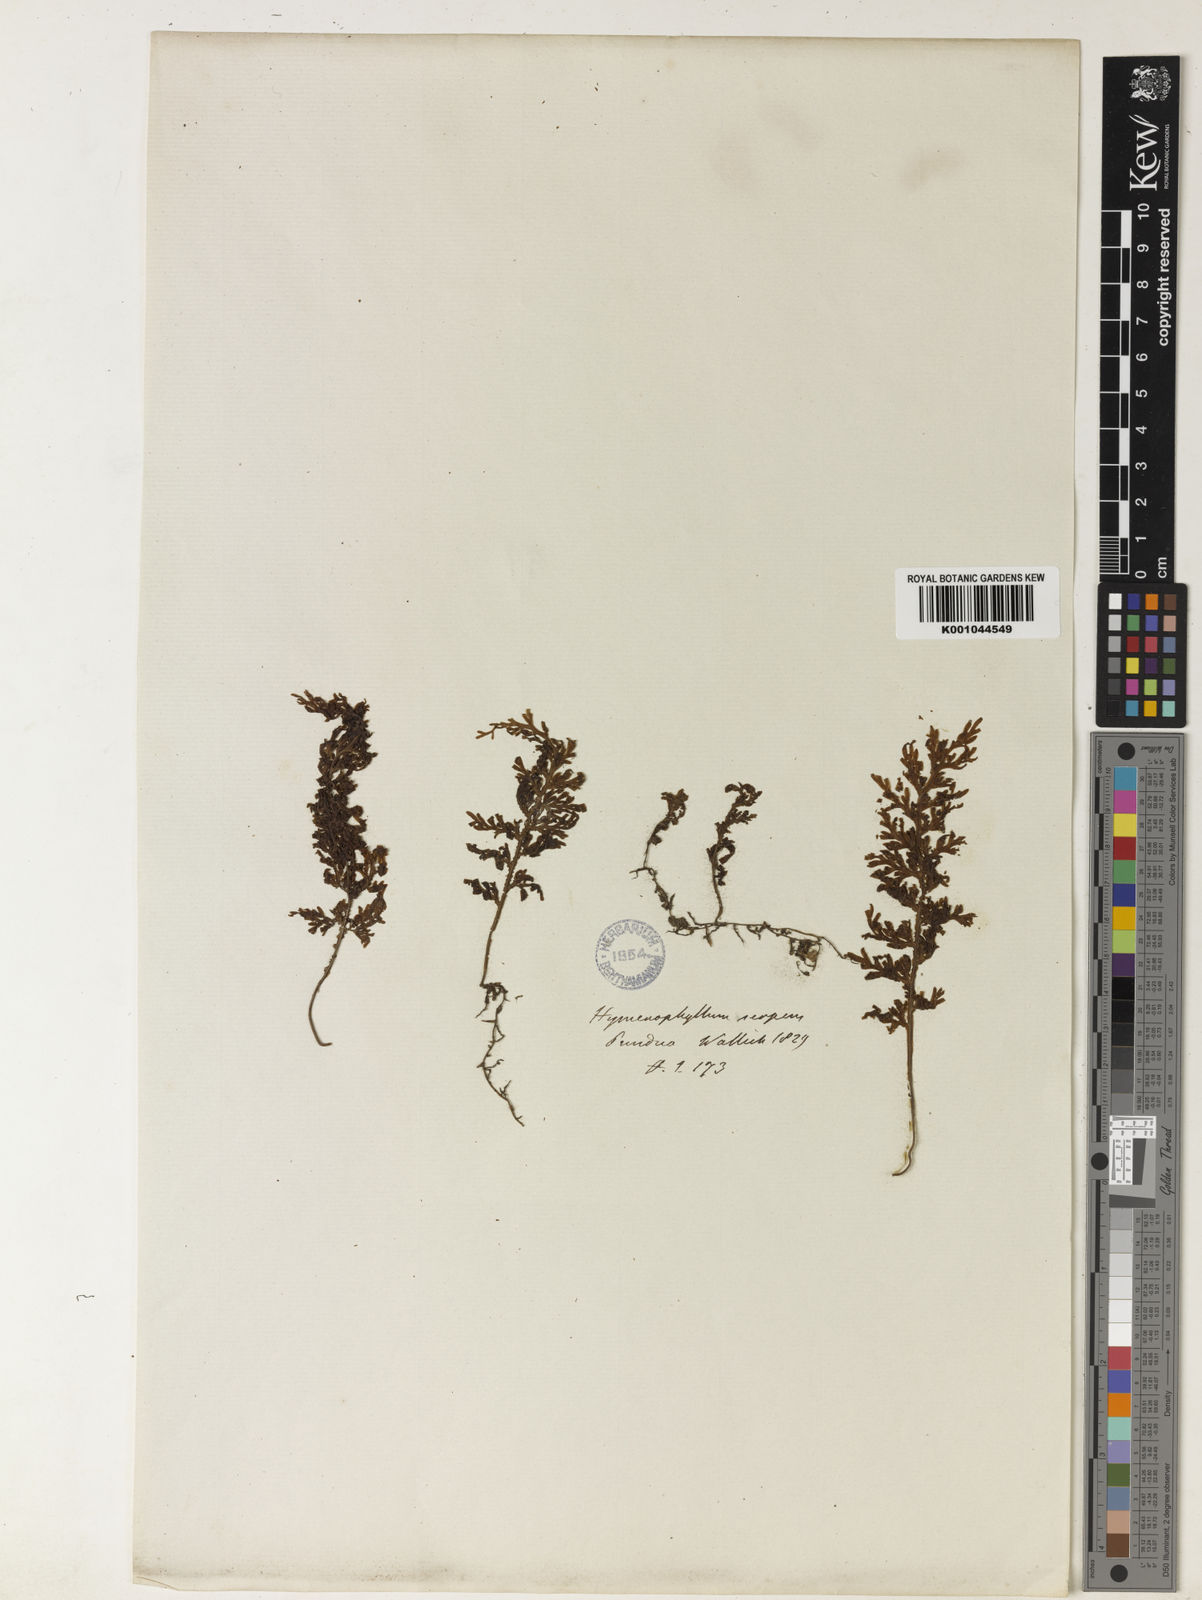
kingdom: Plantae
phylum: Tracheophyta
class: Polypodiopsida
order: Hymenophyllales
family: Hymenophyllaceae
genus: Hymenophyllum
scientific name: Hymenophyllum javanicum
